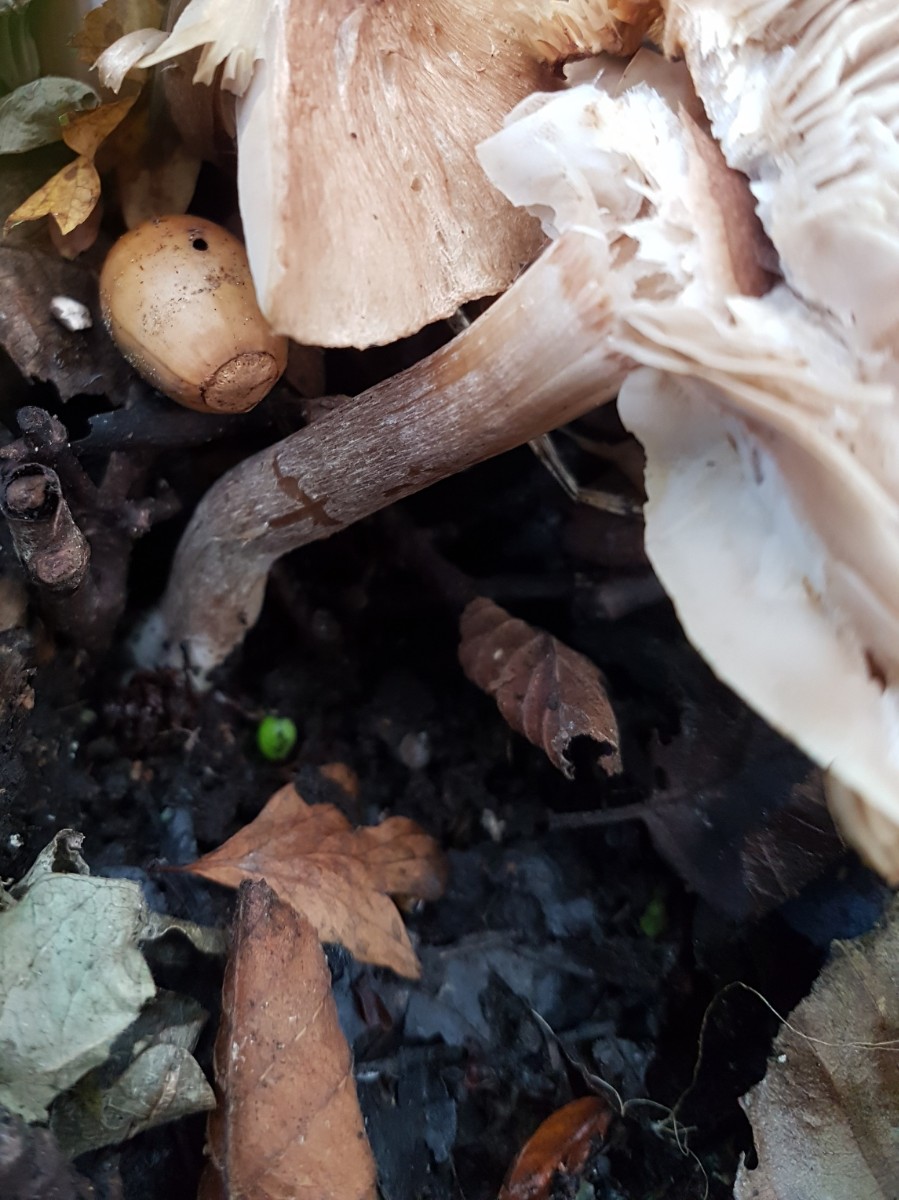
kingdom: Fungi
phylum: Basidiomycota
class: Agaricomycetes
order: Agaricales
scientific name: Agaricales
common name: champignonordenen
